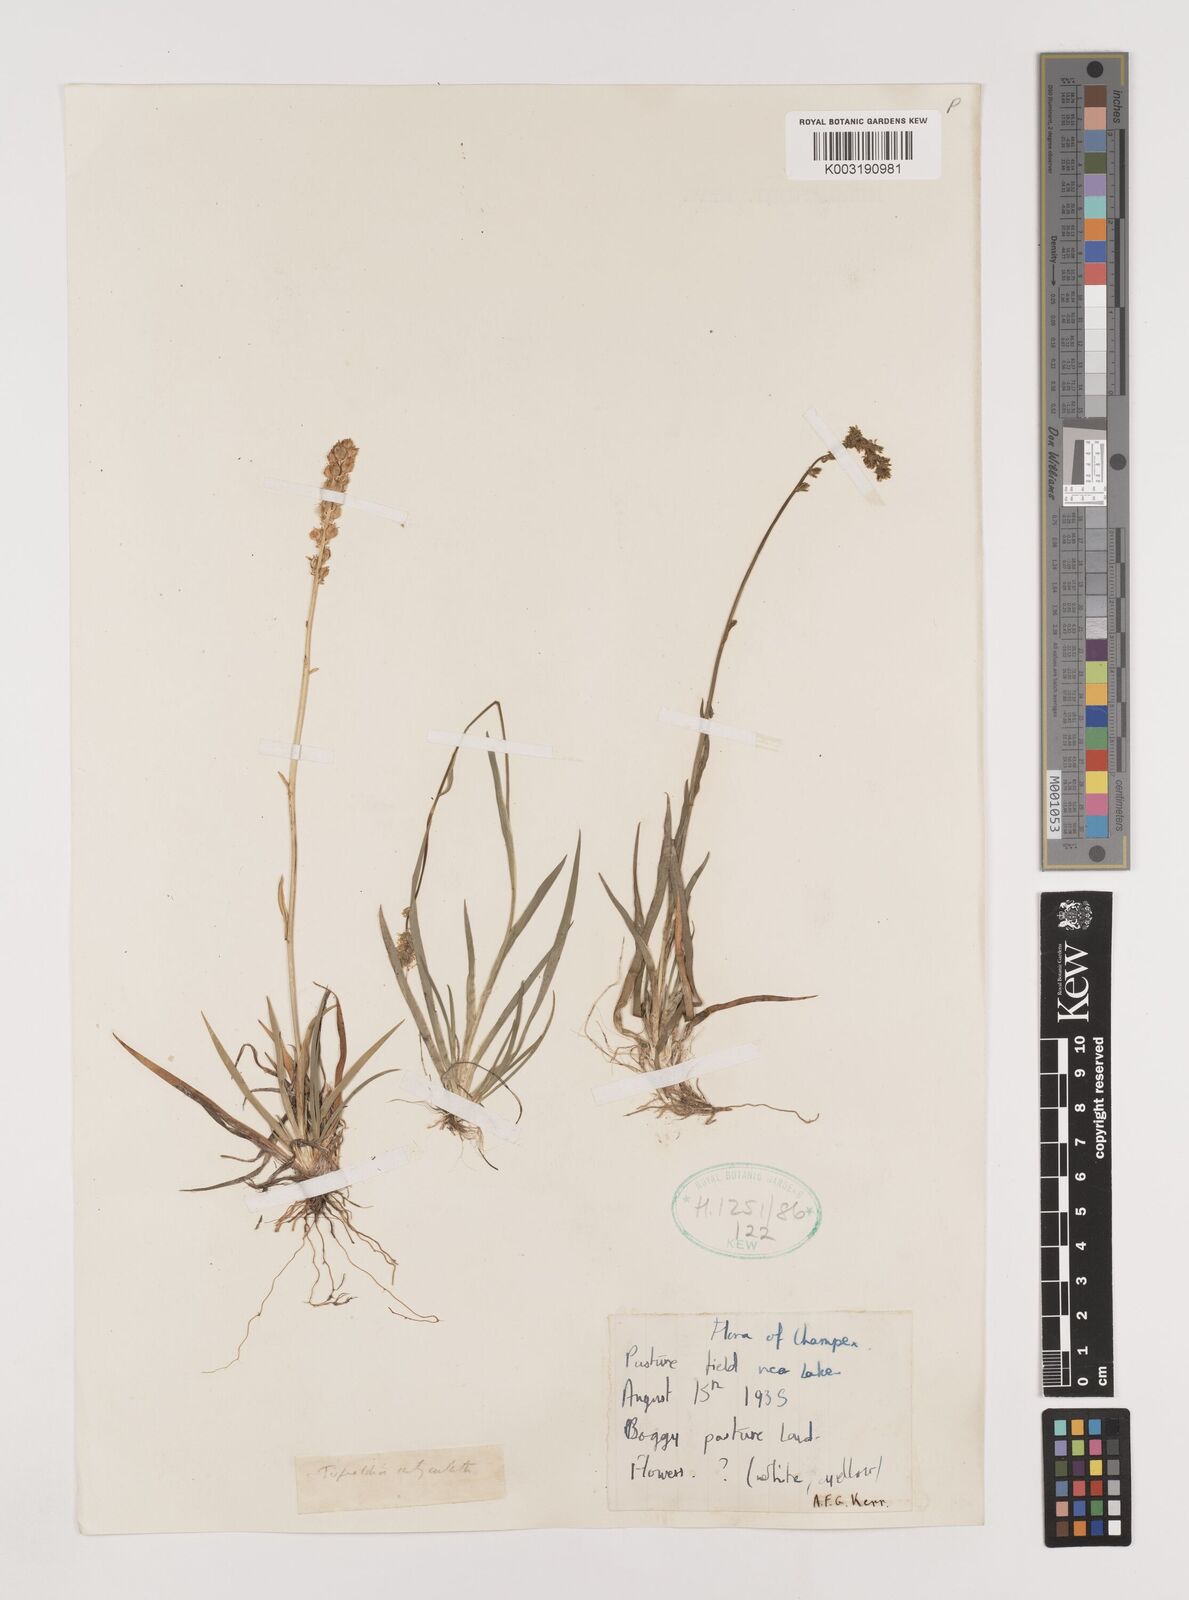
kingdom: Plantae
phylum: Tracheophyta
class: Liliopsida
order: Alismatales
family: Tofieldiaceae
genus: Tofieldia
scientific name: Tofieldia calyculata
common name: German-asphodel
